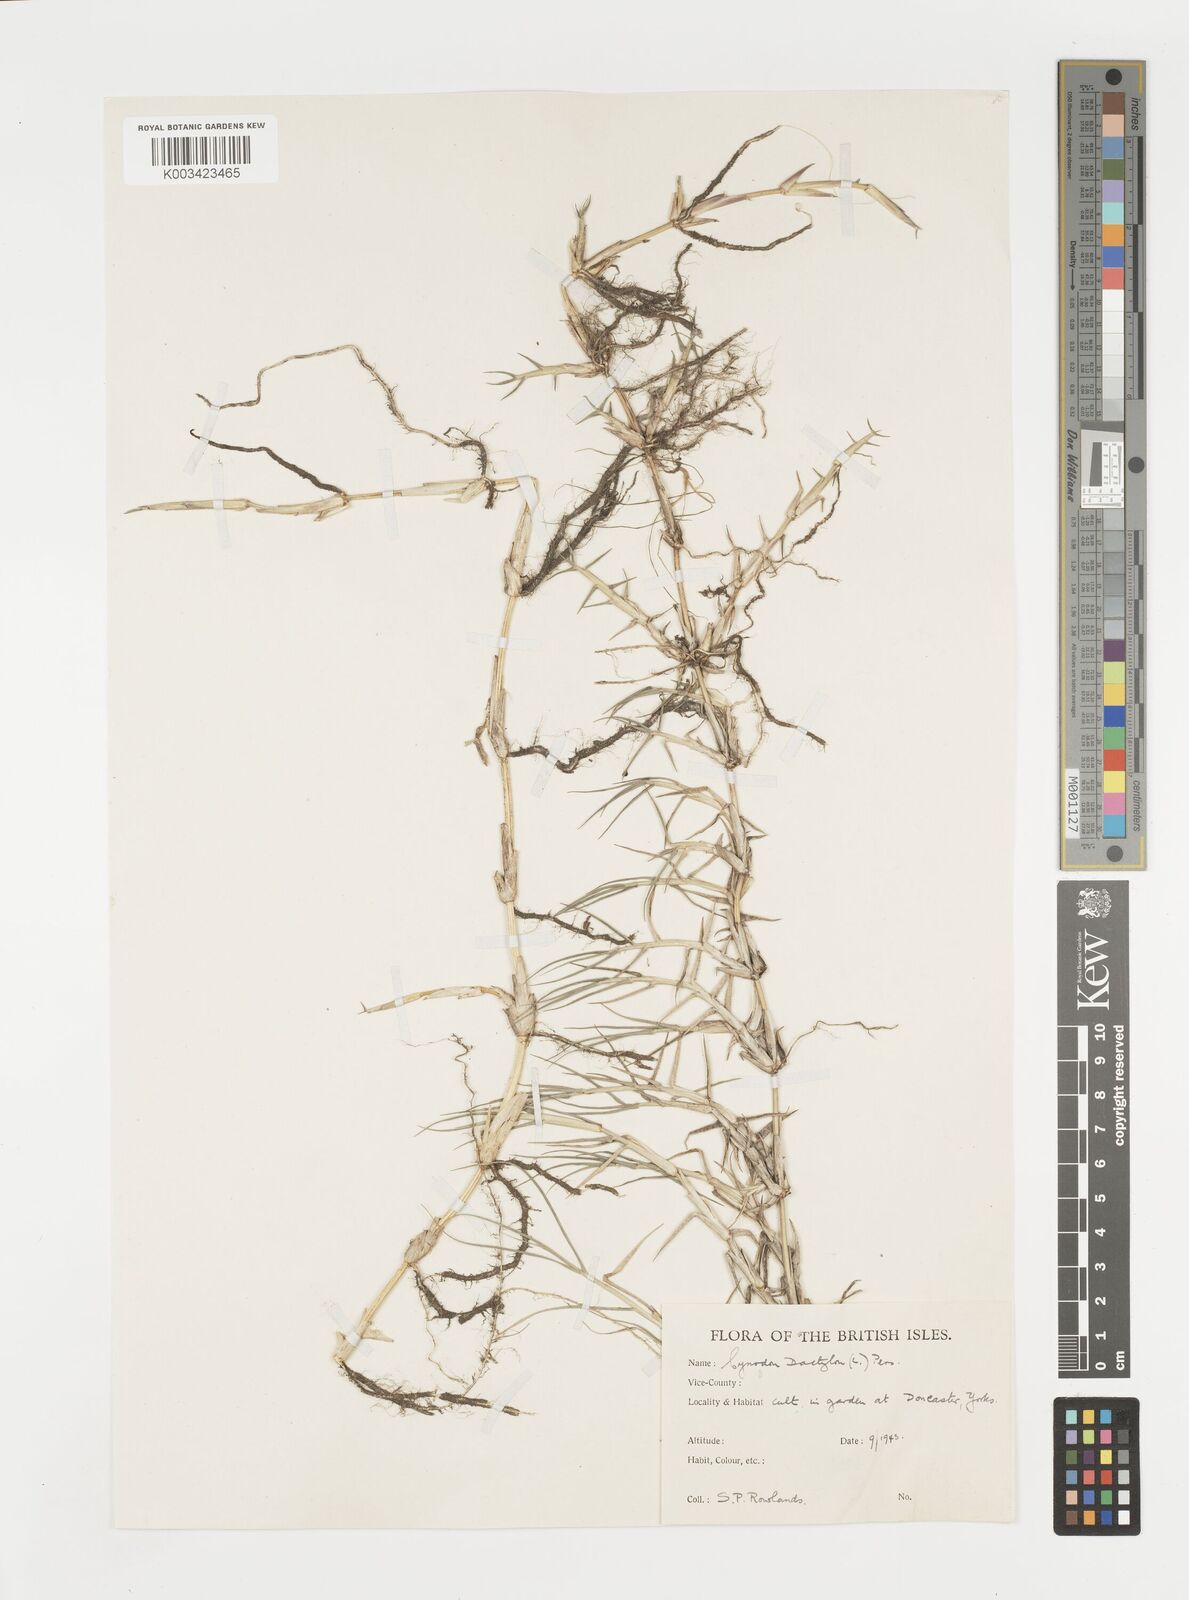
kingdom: Plantae
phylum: Tracheophyta
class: Liliopsida
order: Poales
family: Poaceae
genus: Cynodon
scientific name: Cynodon dactylon
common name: Bermuda grass
